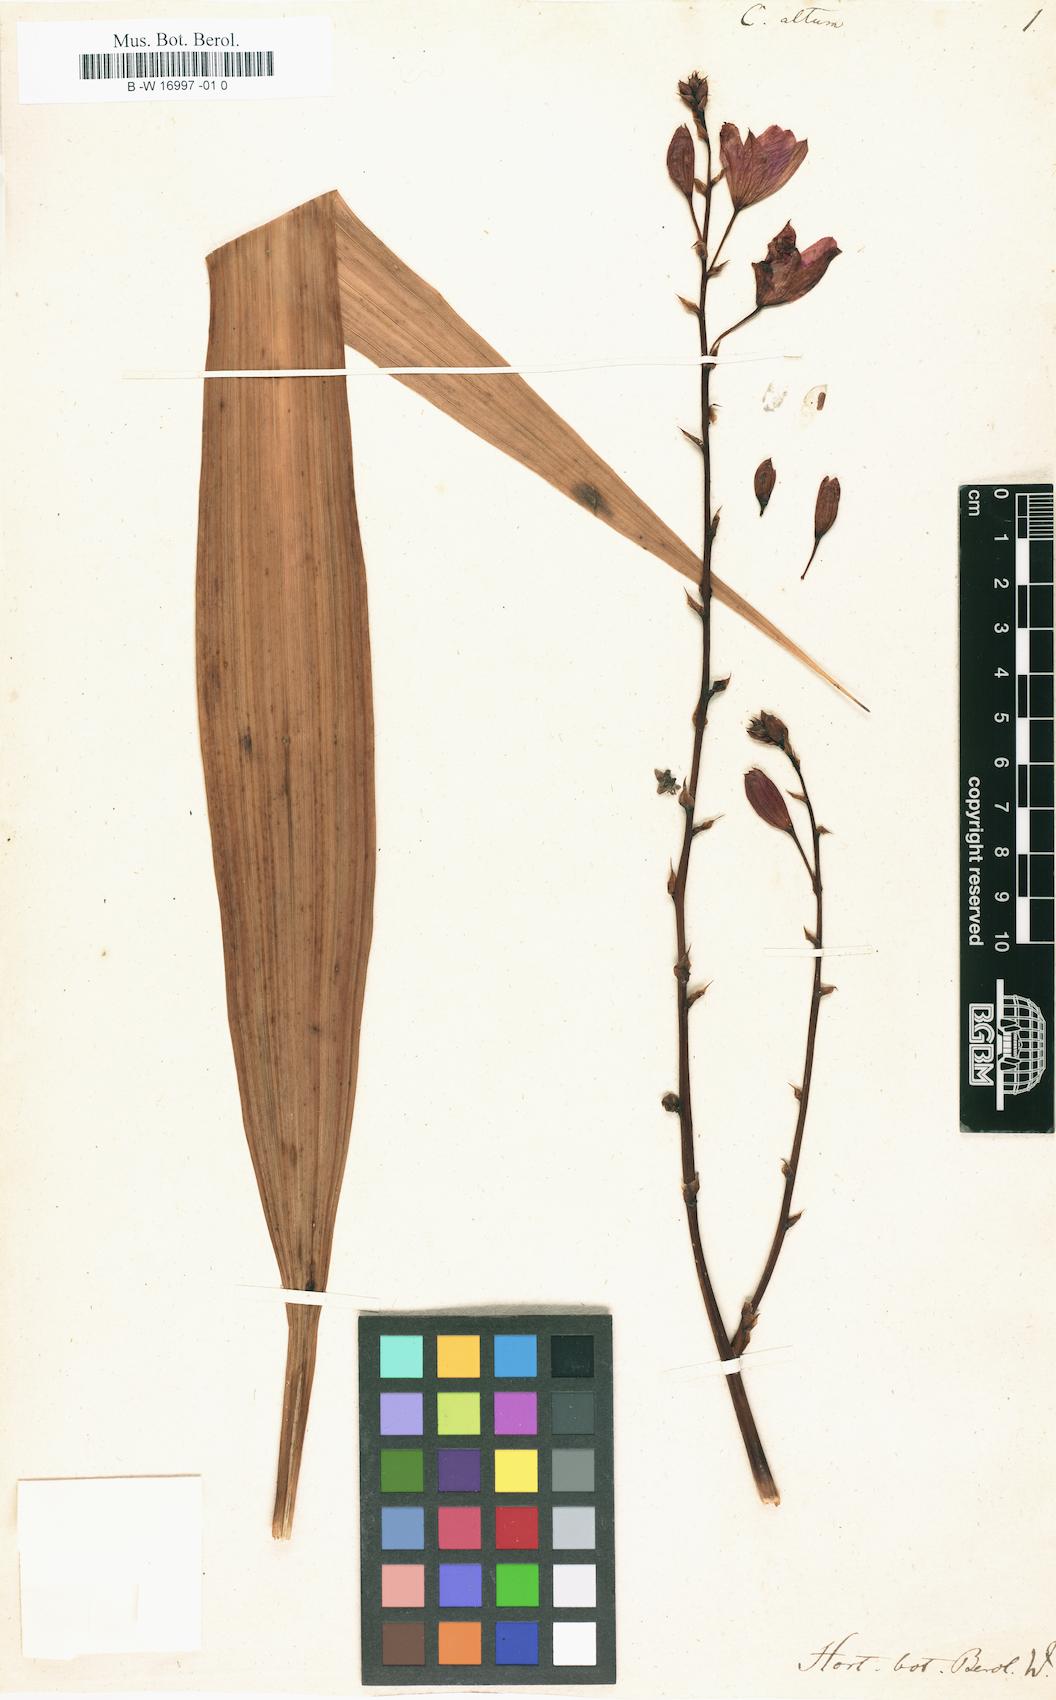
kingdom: Plantae
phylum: Tracheophyta
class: Liliopsida
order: Asparagales
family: Orchidaceae
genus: Bletia
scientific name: Bletia purpurea
